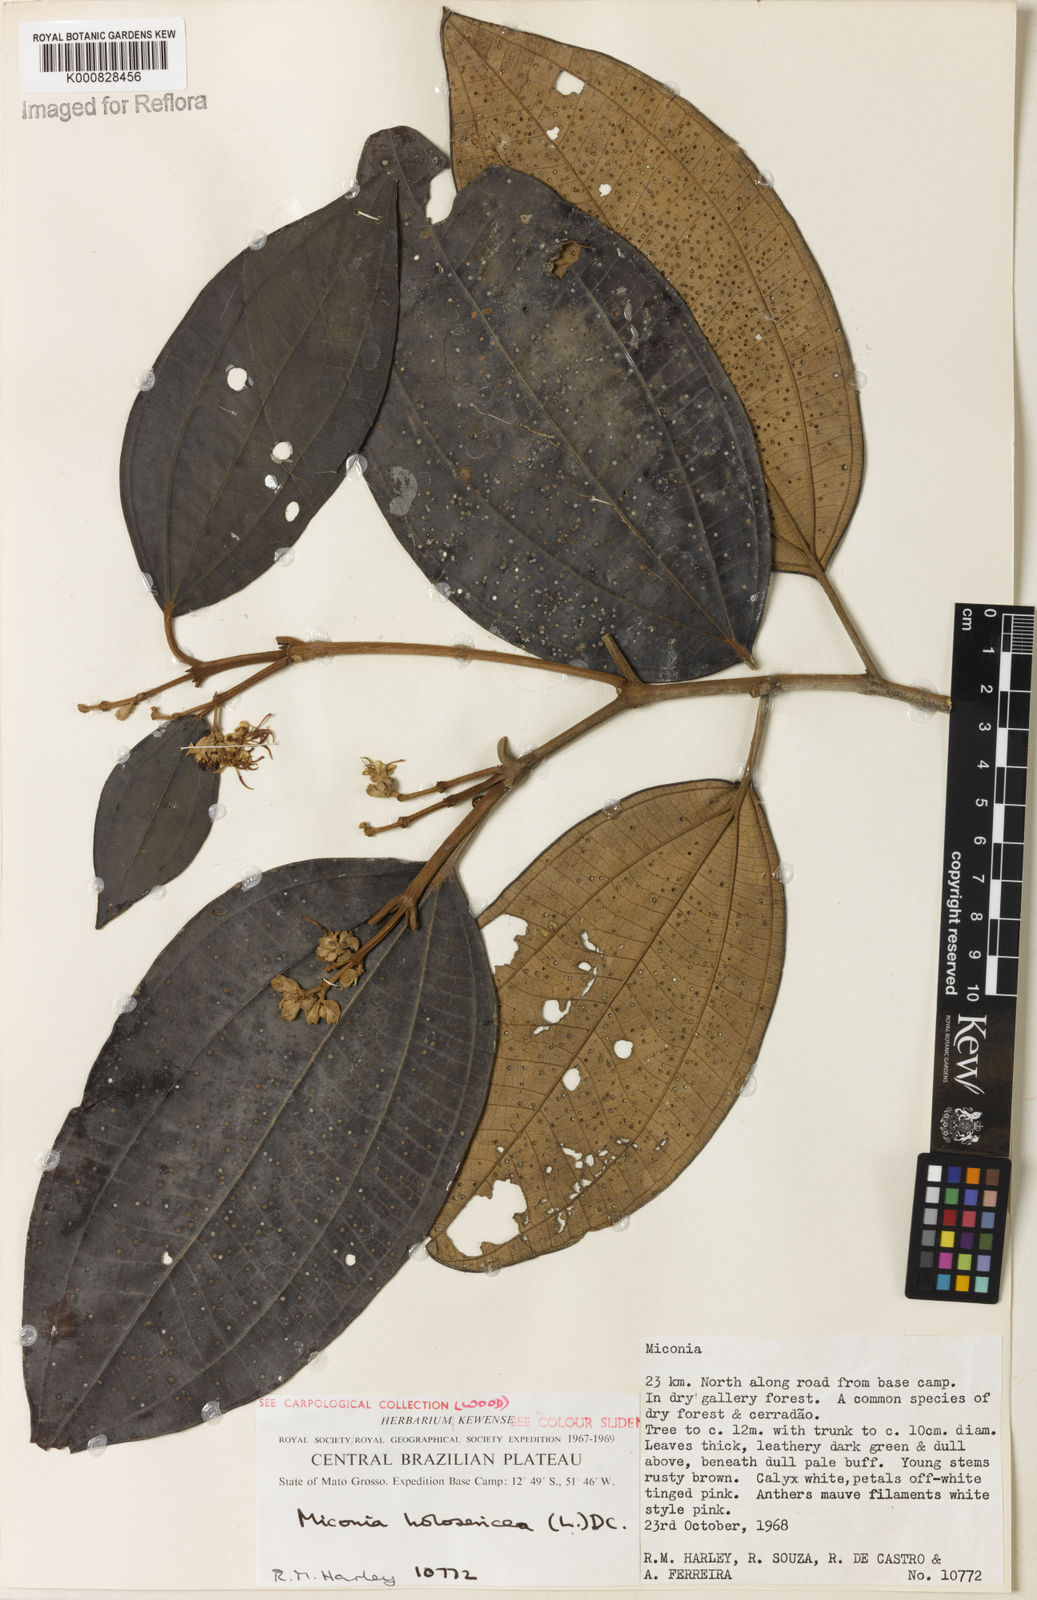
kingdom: Plantae
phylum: Tracheophyta
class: Magnoliopsida
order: Myrtales
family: Melastomataceae
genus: Miconia
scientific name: Miconia holosericea
